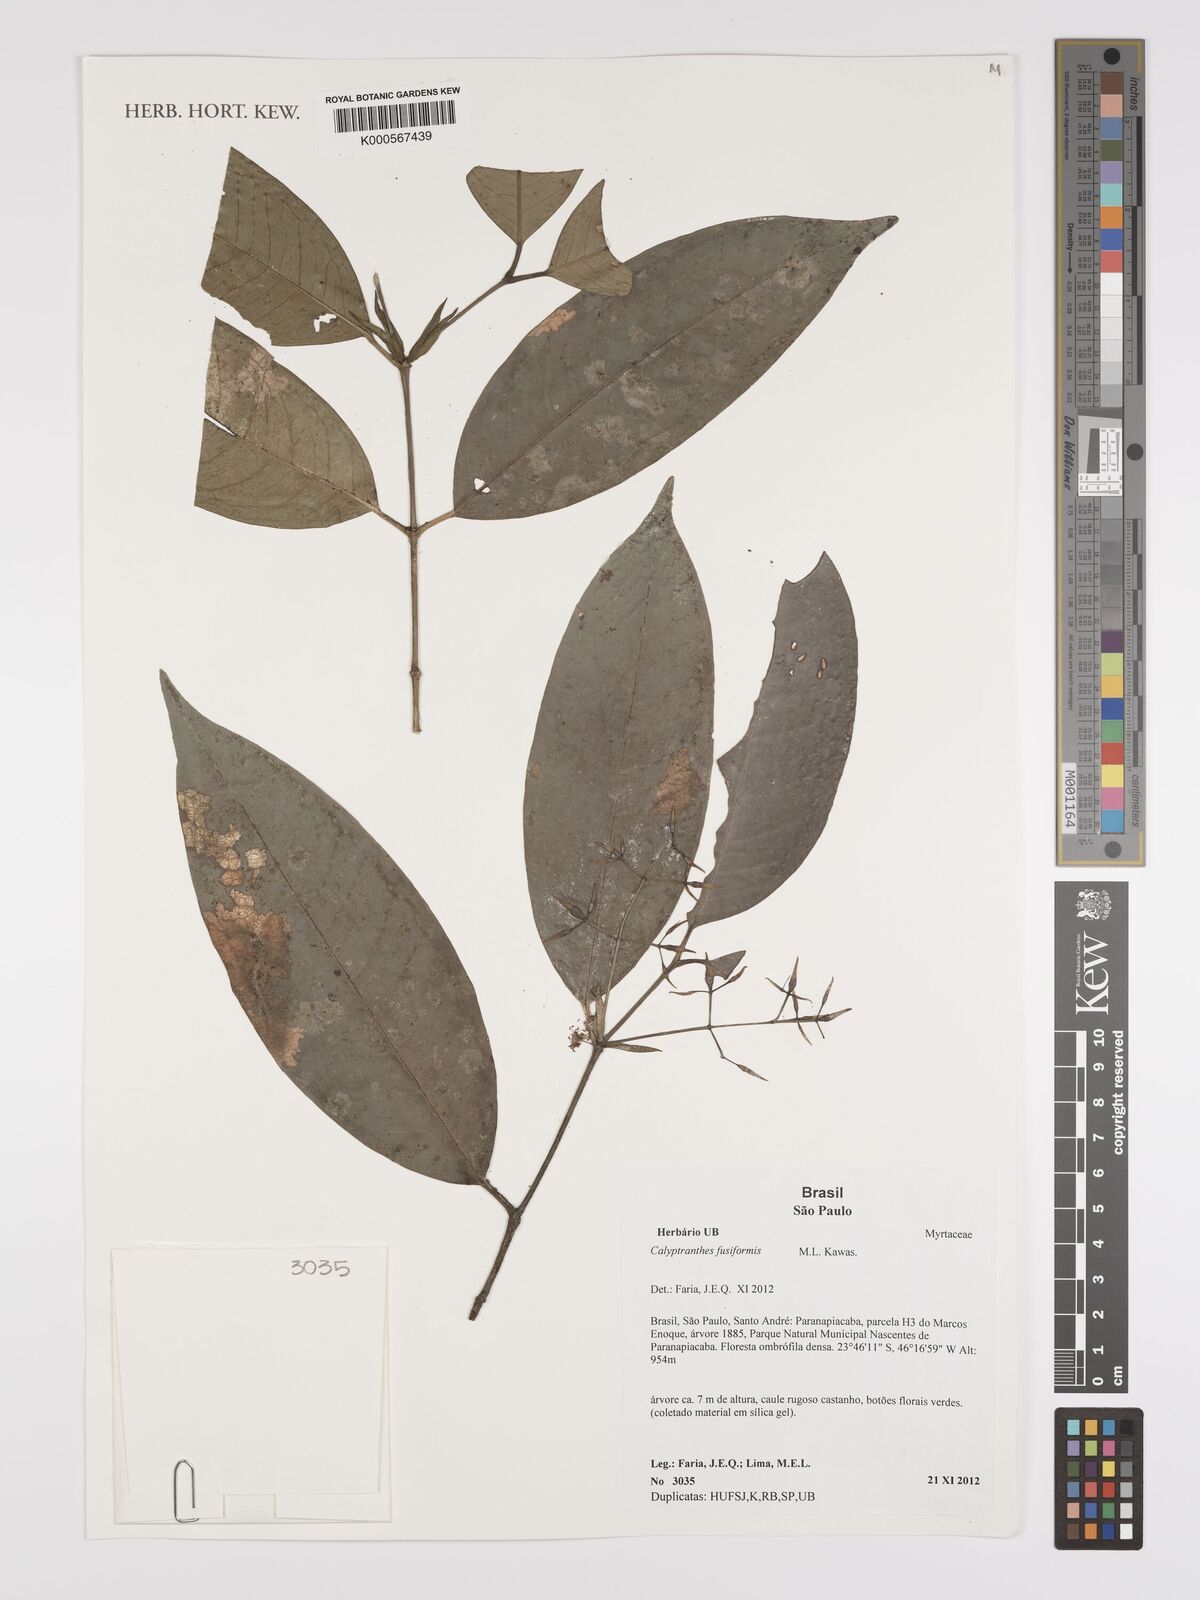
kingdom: Plantae
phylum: Tracheophyta
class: Magnoliopsida
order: Myrtales
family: Myrtaceae
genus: Myrcia
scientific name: Myrcia fusiformis
